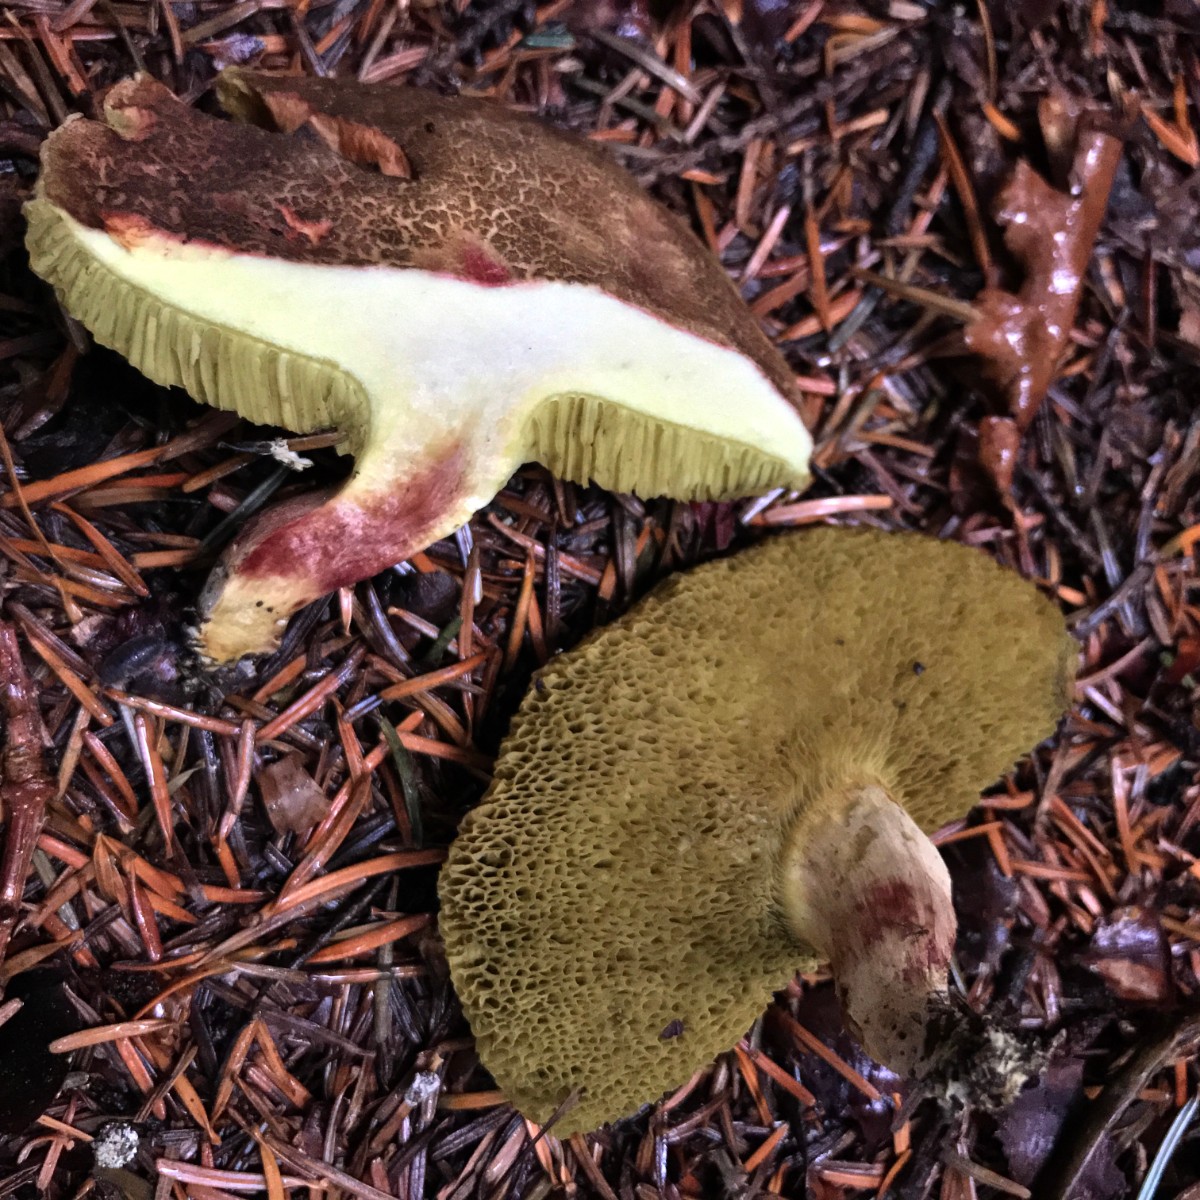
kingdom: Fungi
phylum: Basidiomycota
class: Agaricomycetes
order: Boletales
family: Boletaceae
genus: Xerocomellus
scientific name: Xerocomellus chrysenteron
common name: rødsprukken rørhat
